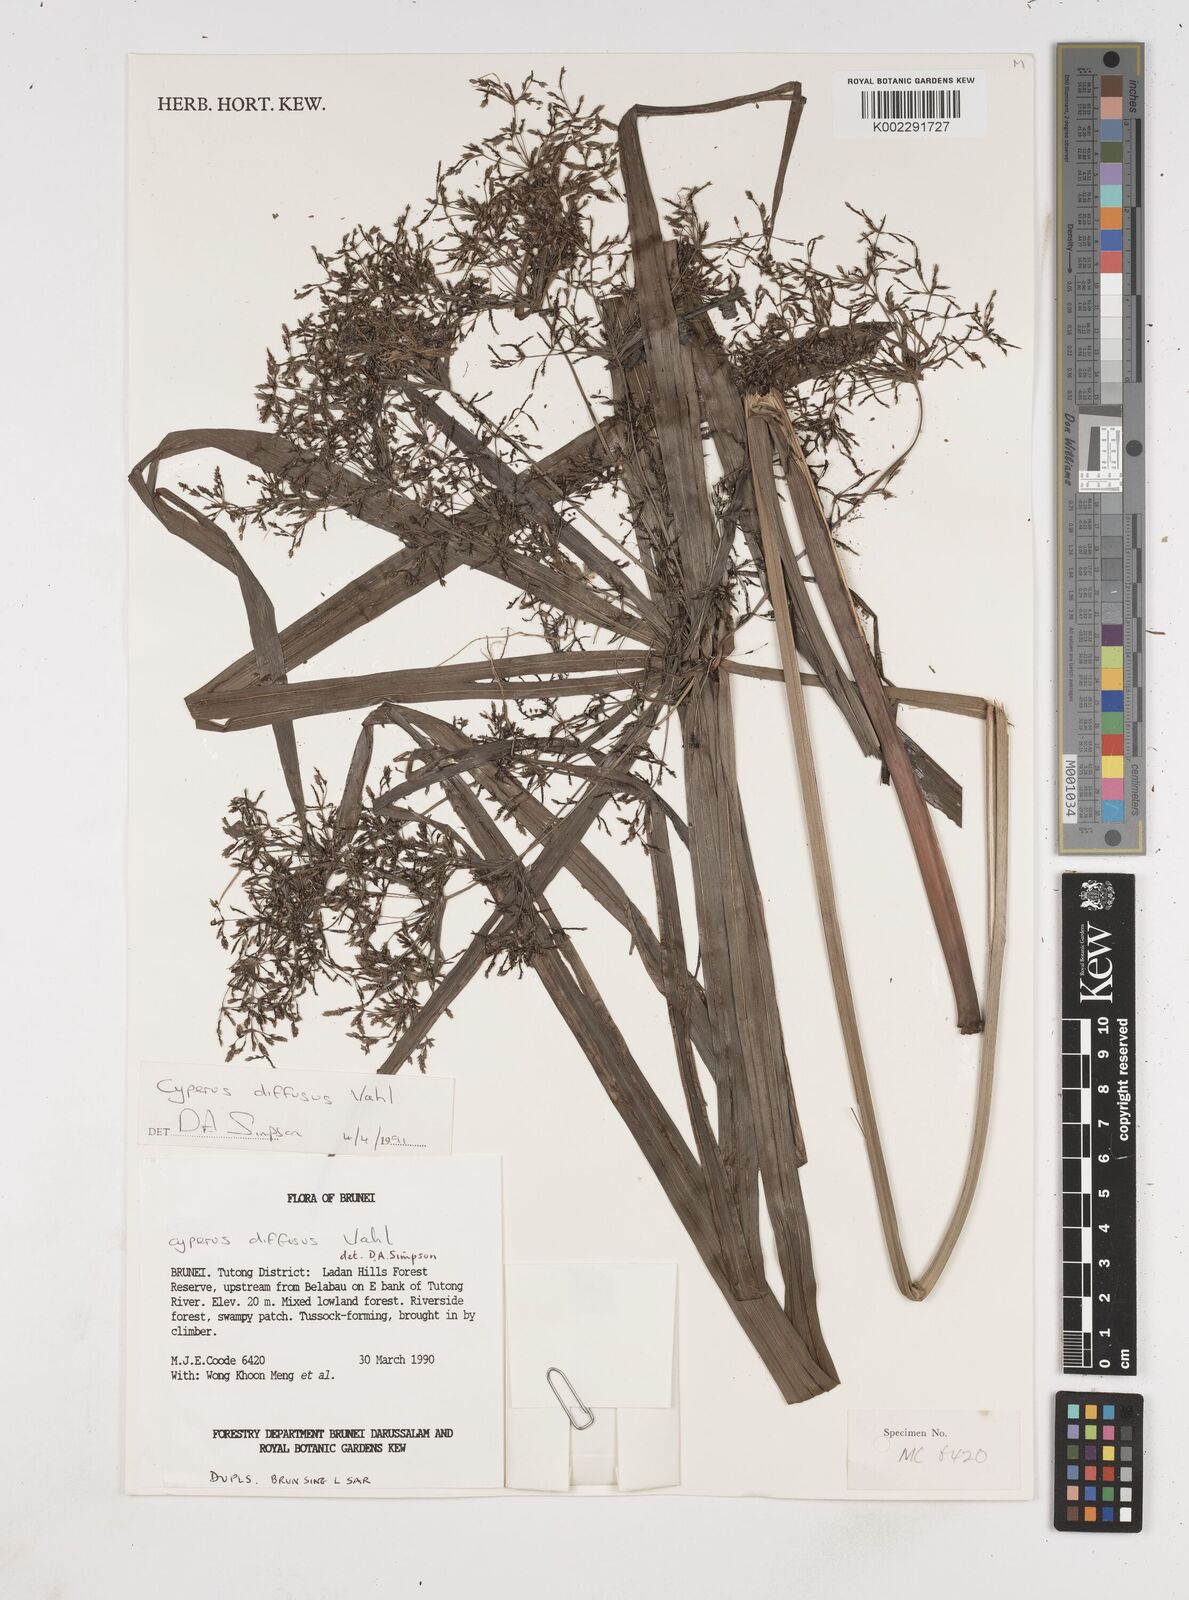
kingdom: Plantae
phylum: Tracheophyta
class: Liliopsida
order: Poales
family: Cyperaceae
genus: Cyperus
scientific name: Cyperus diffusus
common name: Dwarf umbrella grass
